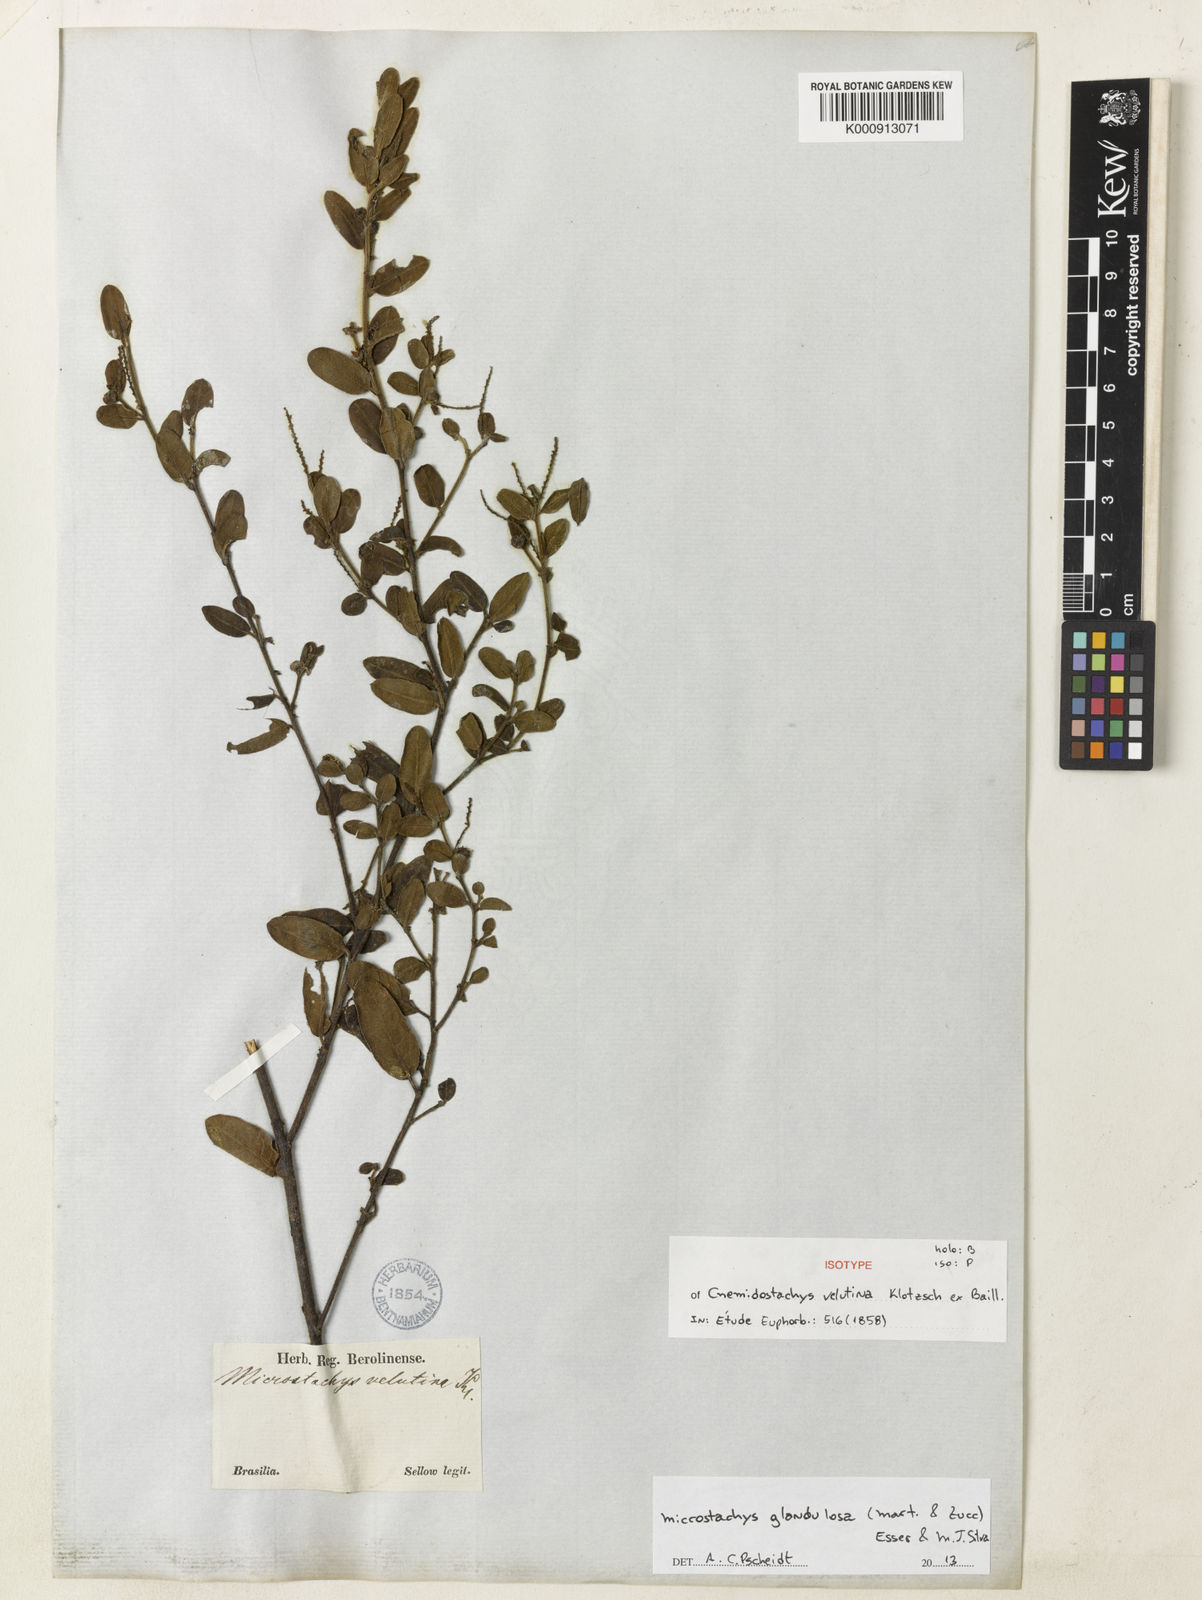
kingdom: Plantae
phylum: Tracheophyta
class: Magnoliopsida
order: Malpighiales
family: Euphorbiaceae
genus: Microstachys
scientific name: Microstachys glandulosa
